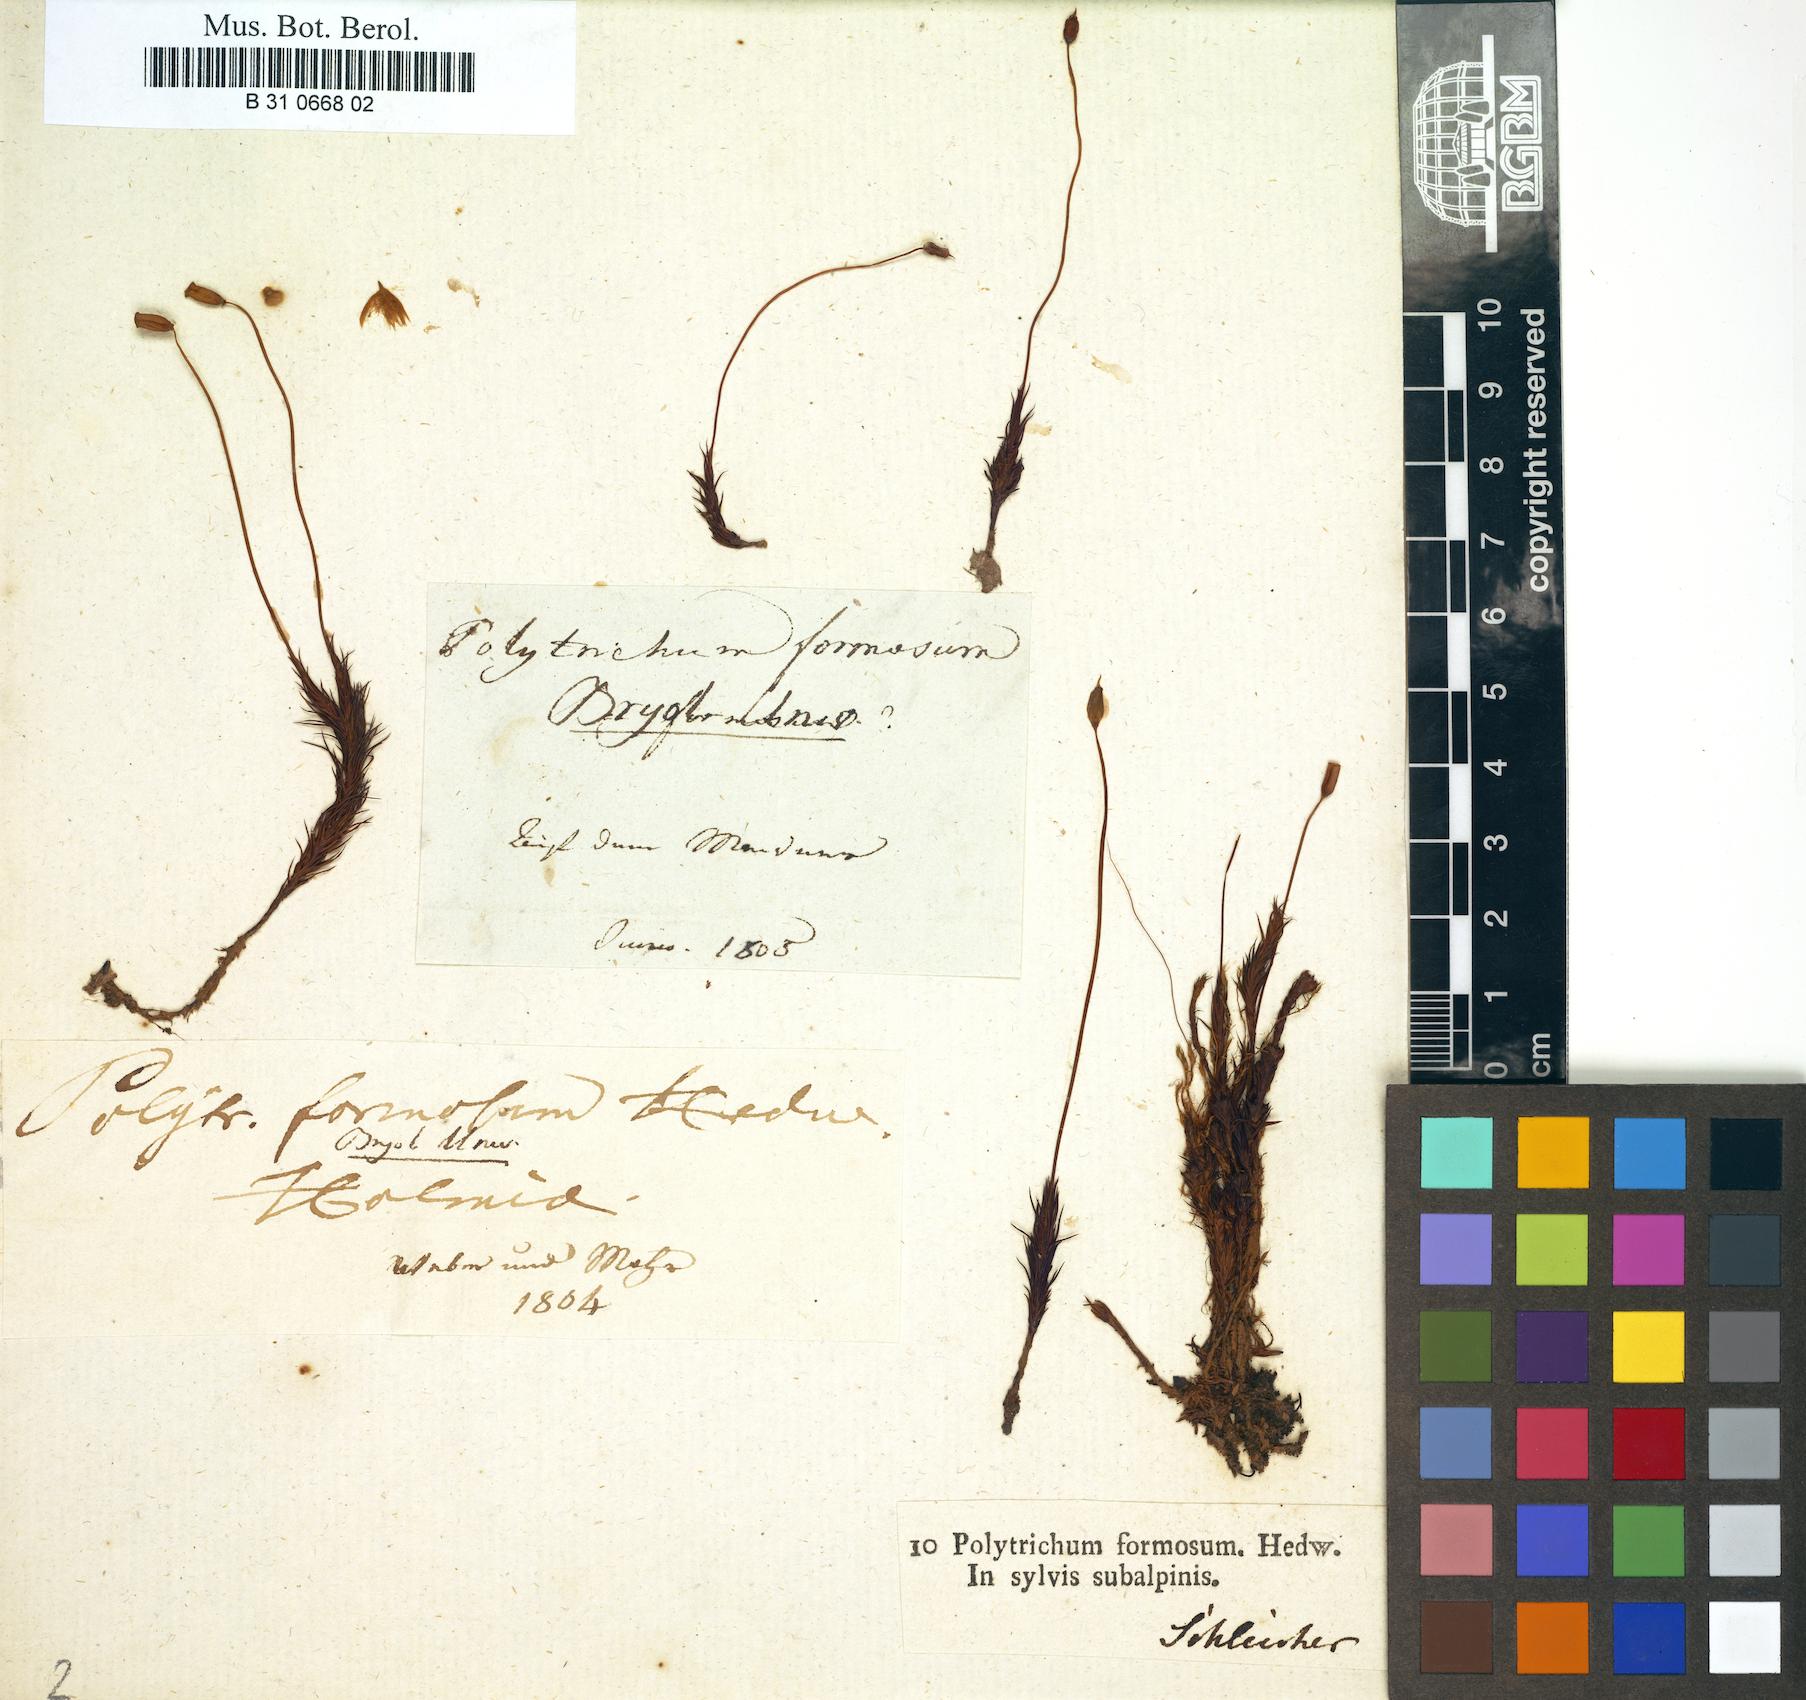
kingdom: Plantae
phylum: Bryophyta
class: Polytrichopsida
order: Polytrichales
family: Polytrichaceae
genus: Polytrichum
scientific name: Polytrichum formosum
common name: Bank haircap moss
